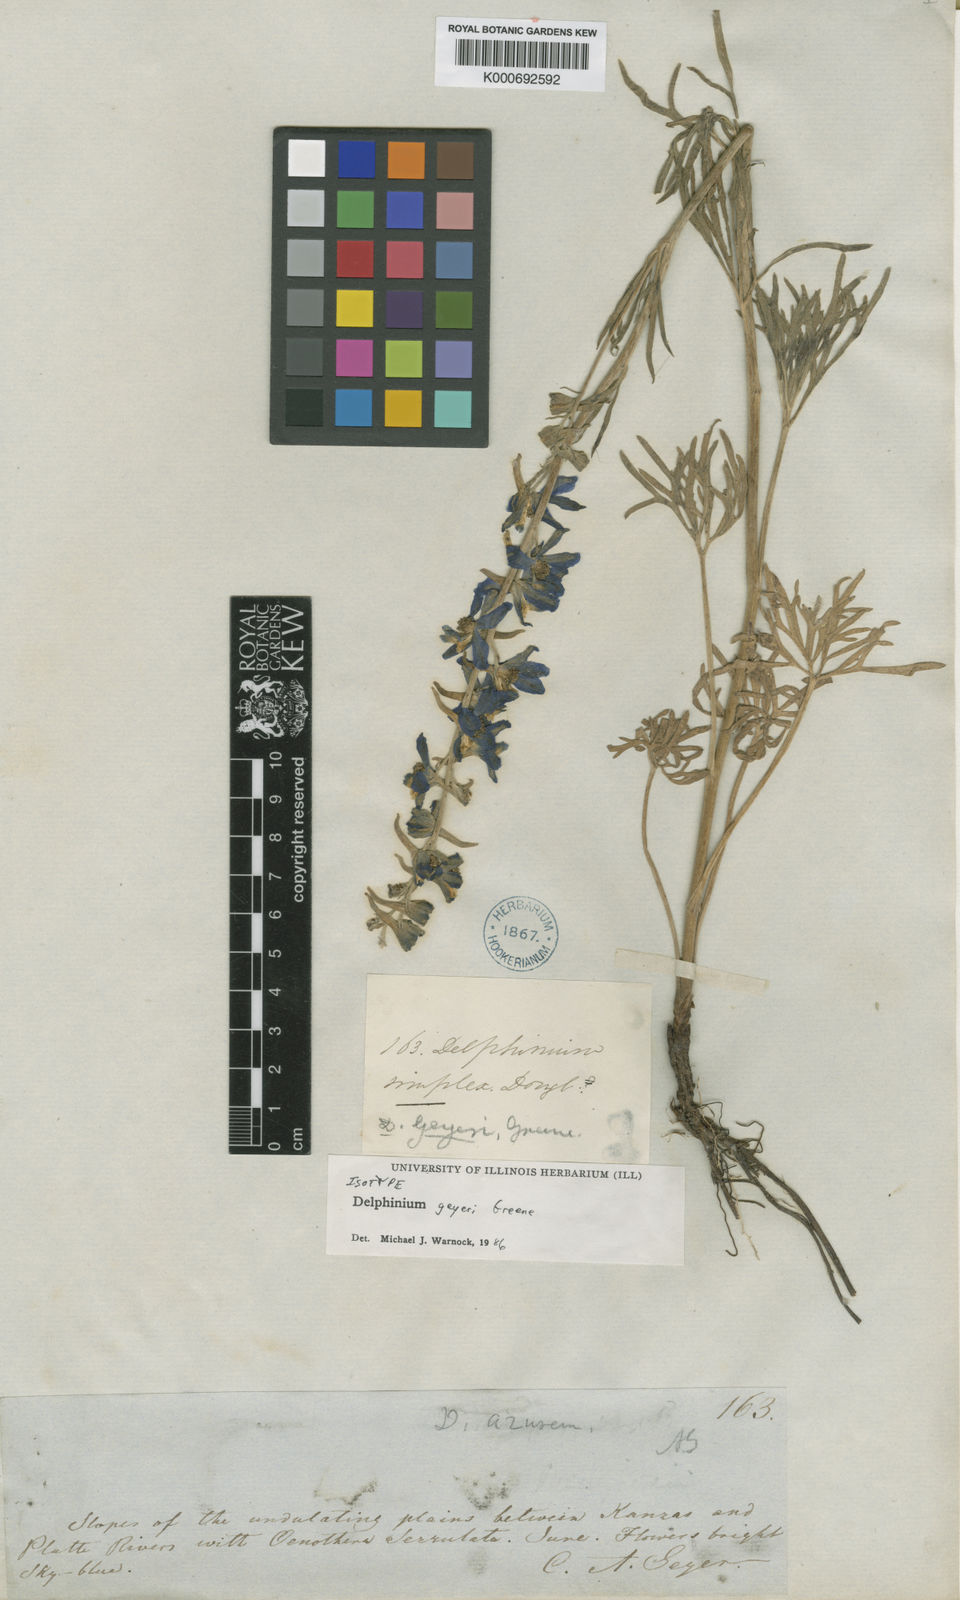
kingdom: Plantae
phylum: Tracheophyta
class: Magnoliopsida
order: Ranunculales
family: Ranunculaceae
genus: Delphinium
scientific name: Delphinium geyeri
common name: Geyer's larkspur
